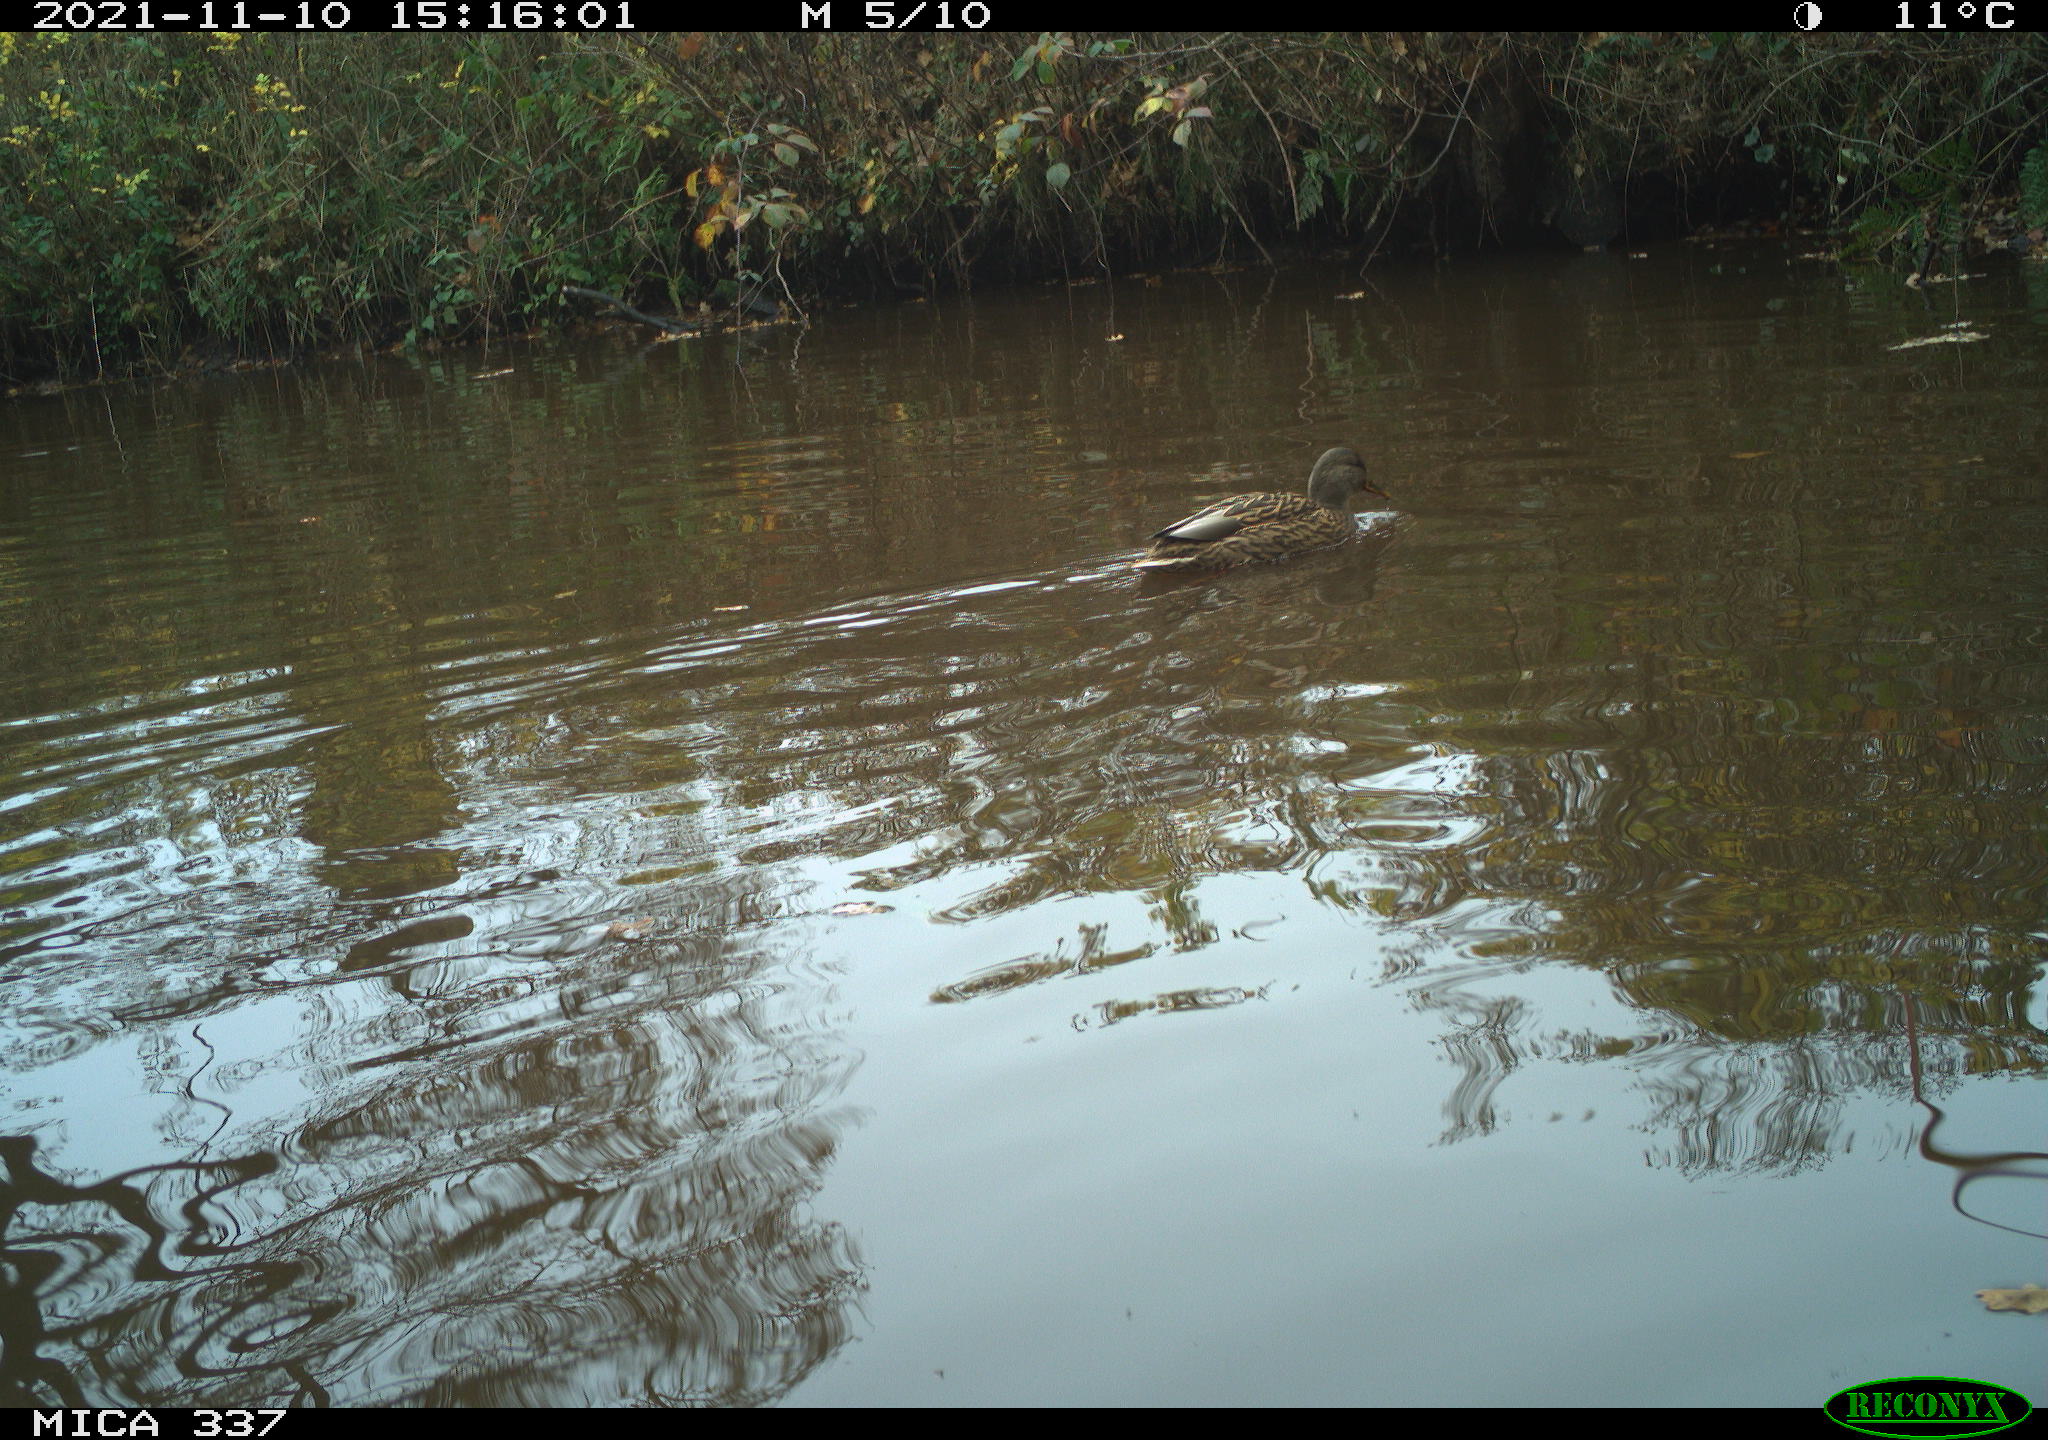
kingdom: Animalia
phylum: Chordata
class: Aves
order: Anseriformes
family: Anatidae
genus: Anas
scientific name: Anas platyrhynchos
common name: Mallard
